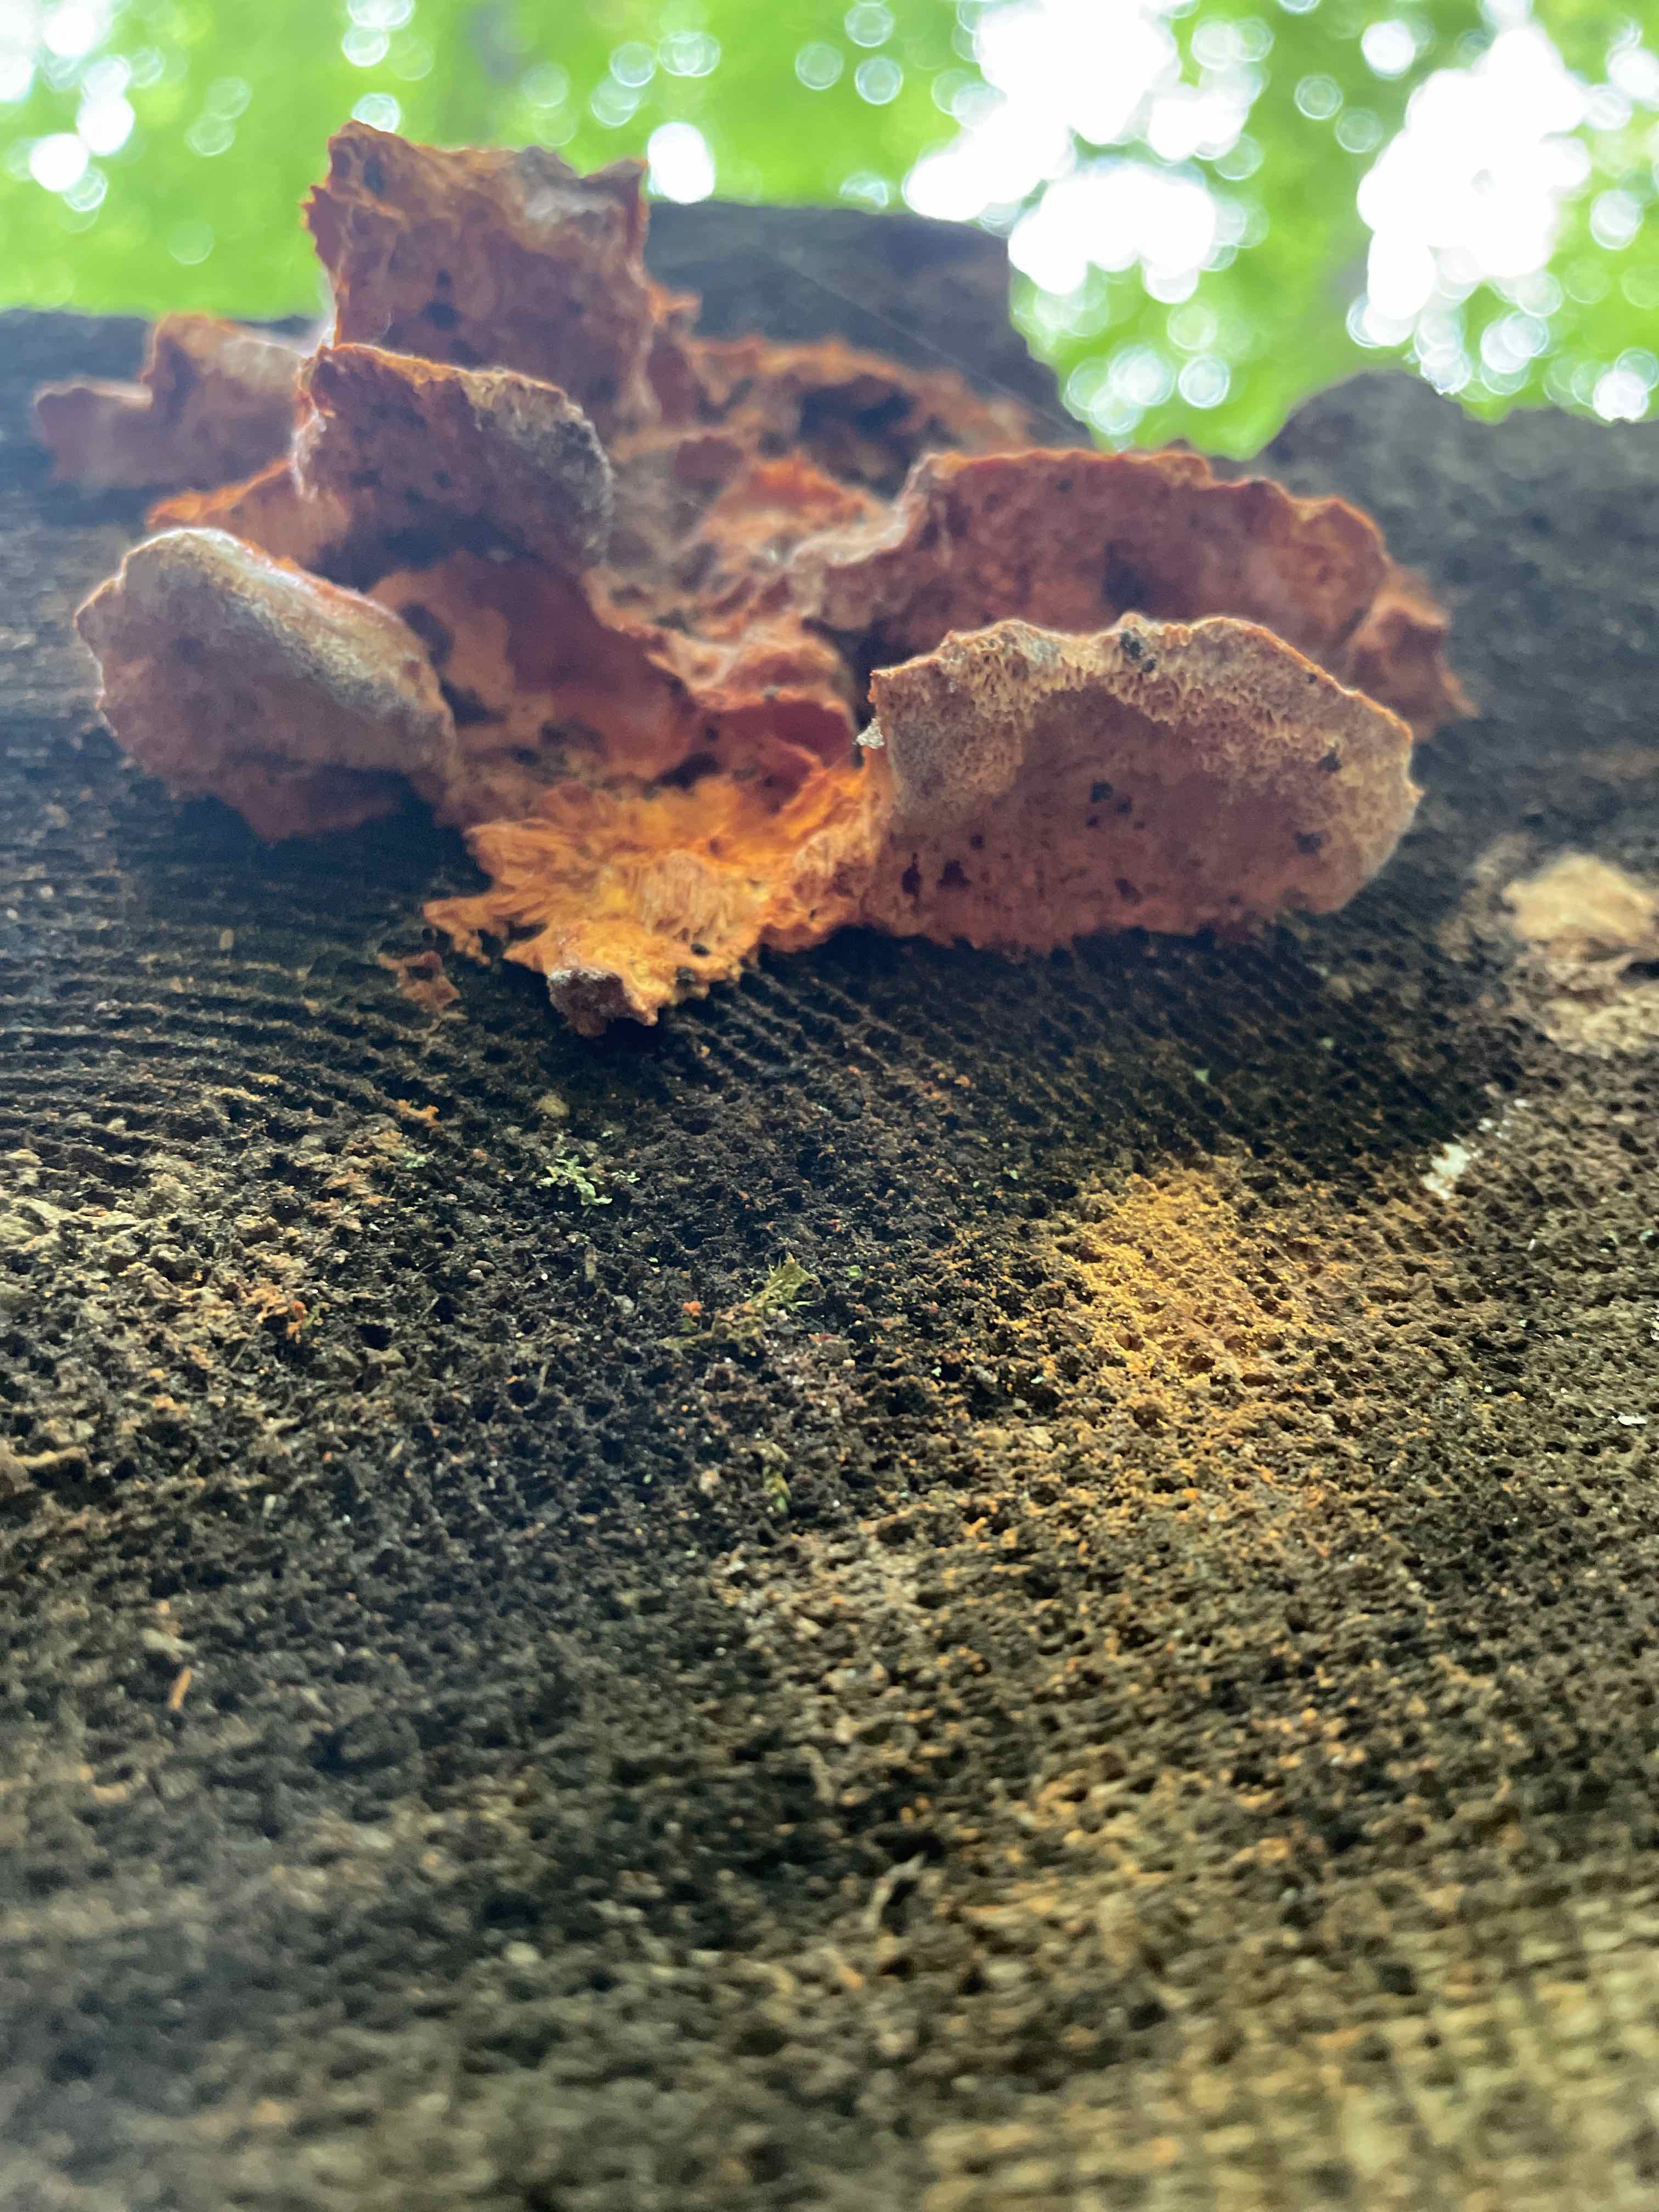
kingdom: Fungi
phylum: Basidiomycota
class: Agaricomycetes
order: Polyporales
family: Pycnoporellaceae
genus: Pycnoporellus
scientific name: Pycnoporellus fulgens
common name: flammeporesvamp
